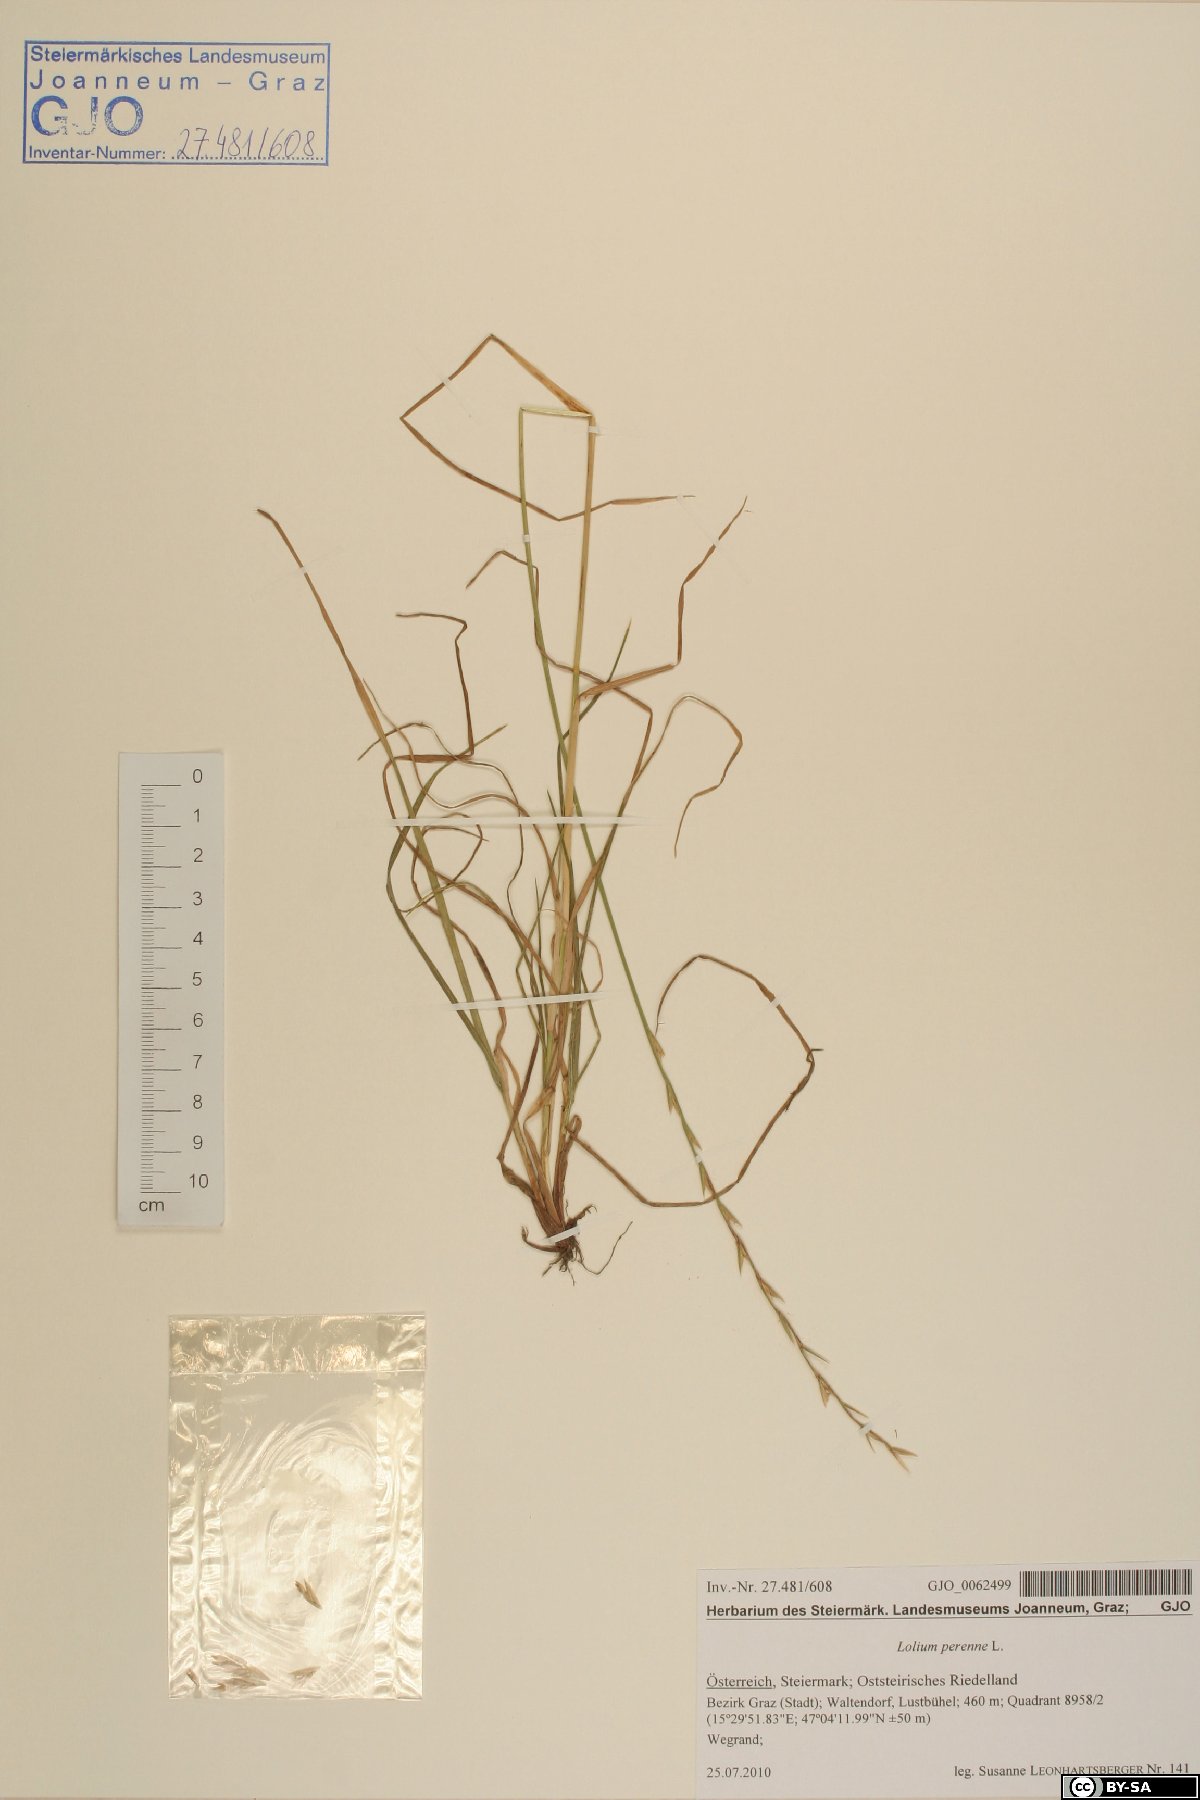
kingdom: Plantae
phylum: Tracheophyta
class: Liliopsida
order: Poales
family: Poaceae
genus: Lolium
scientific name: Lolium perenne
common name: Perennial ryegrass
